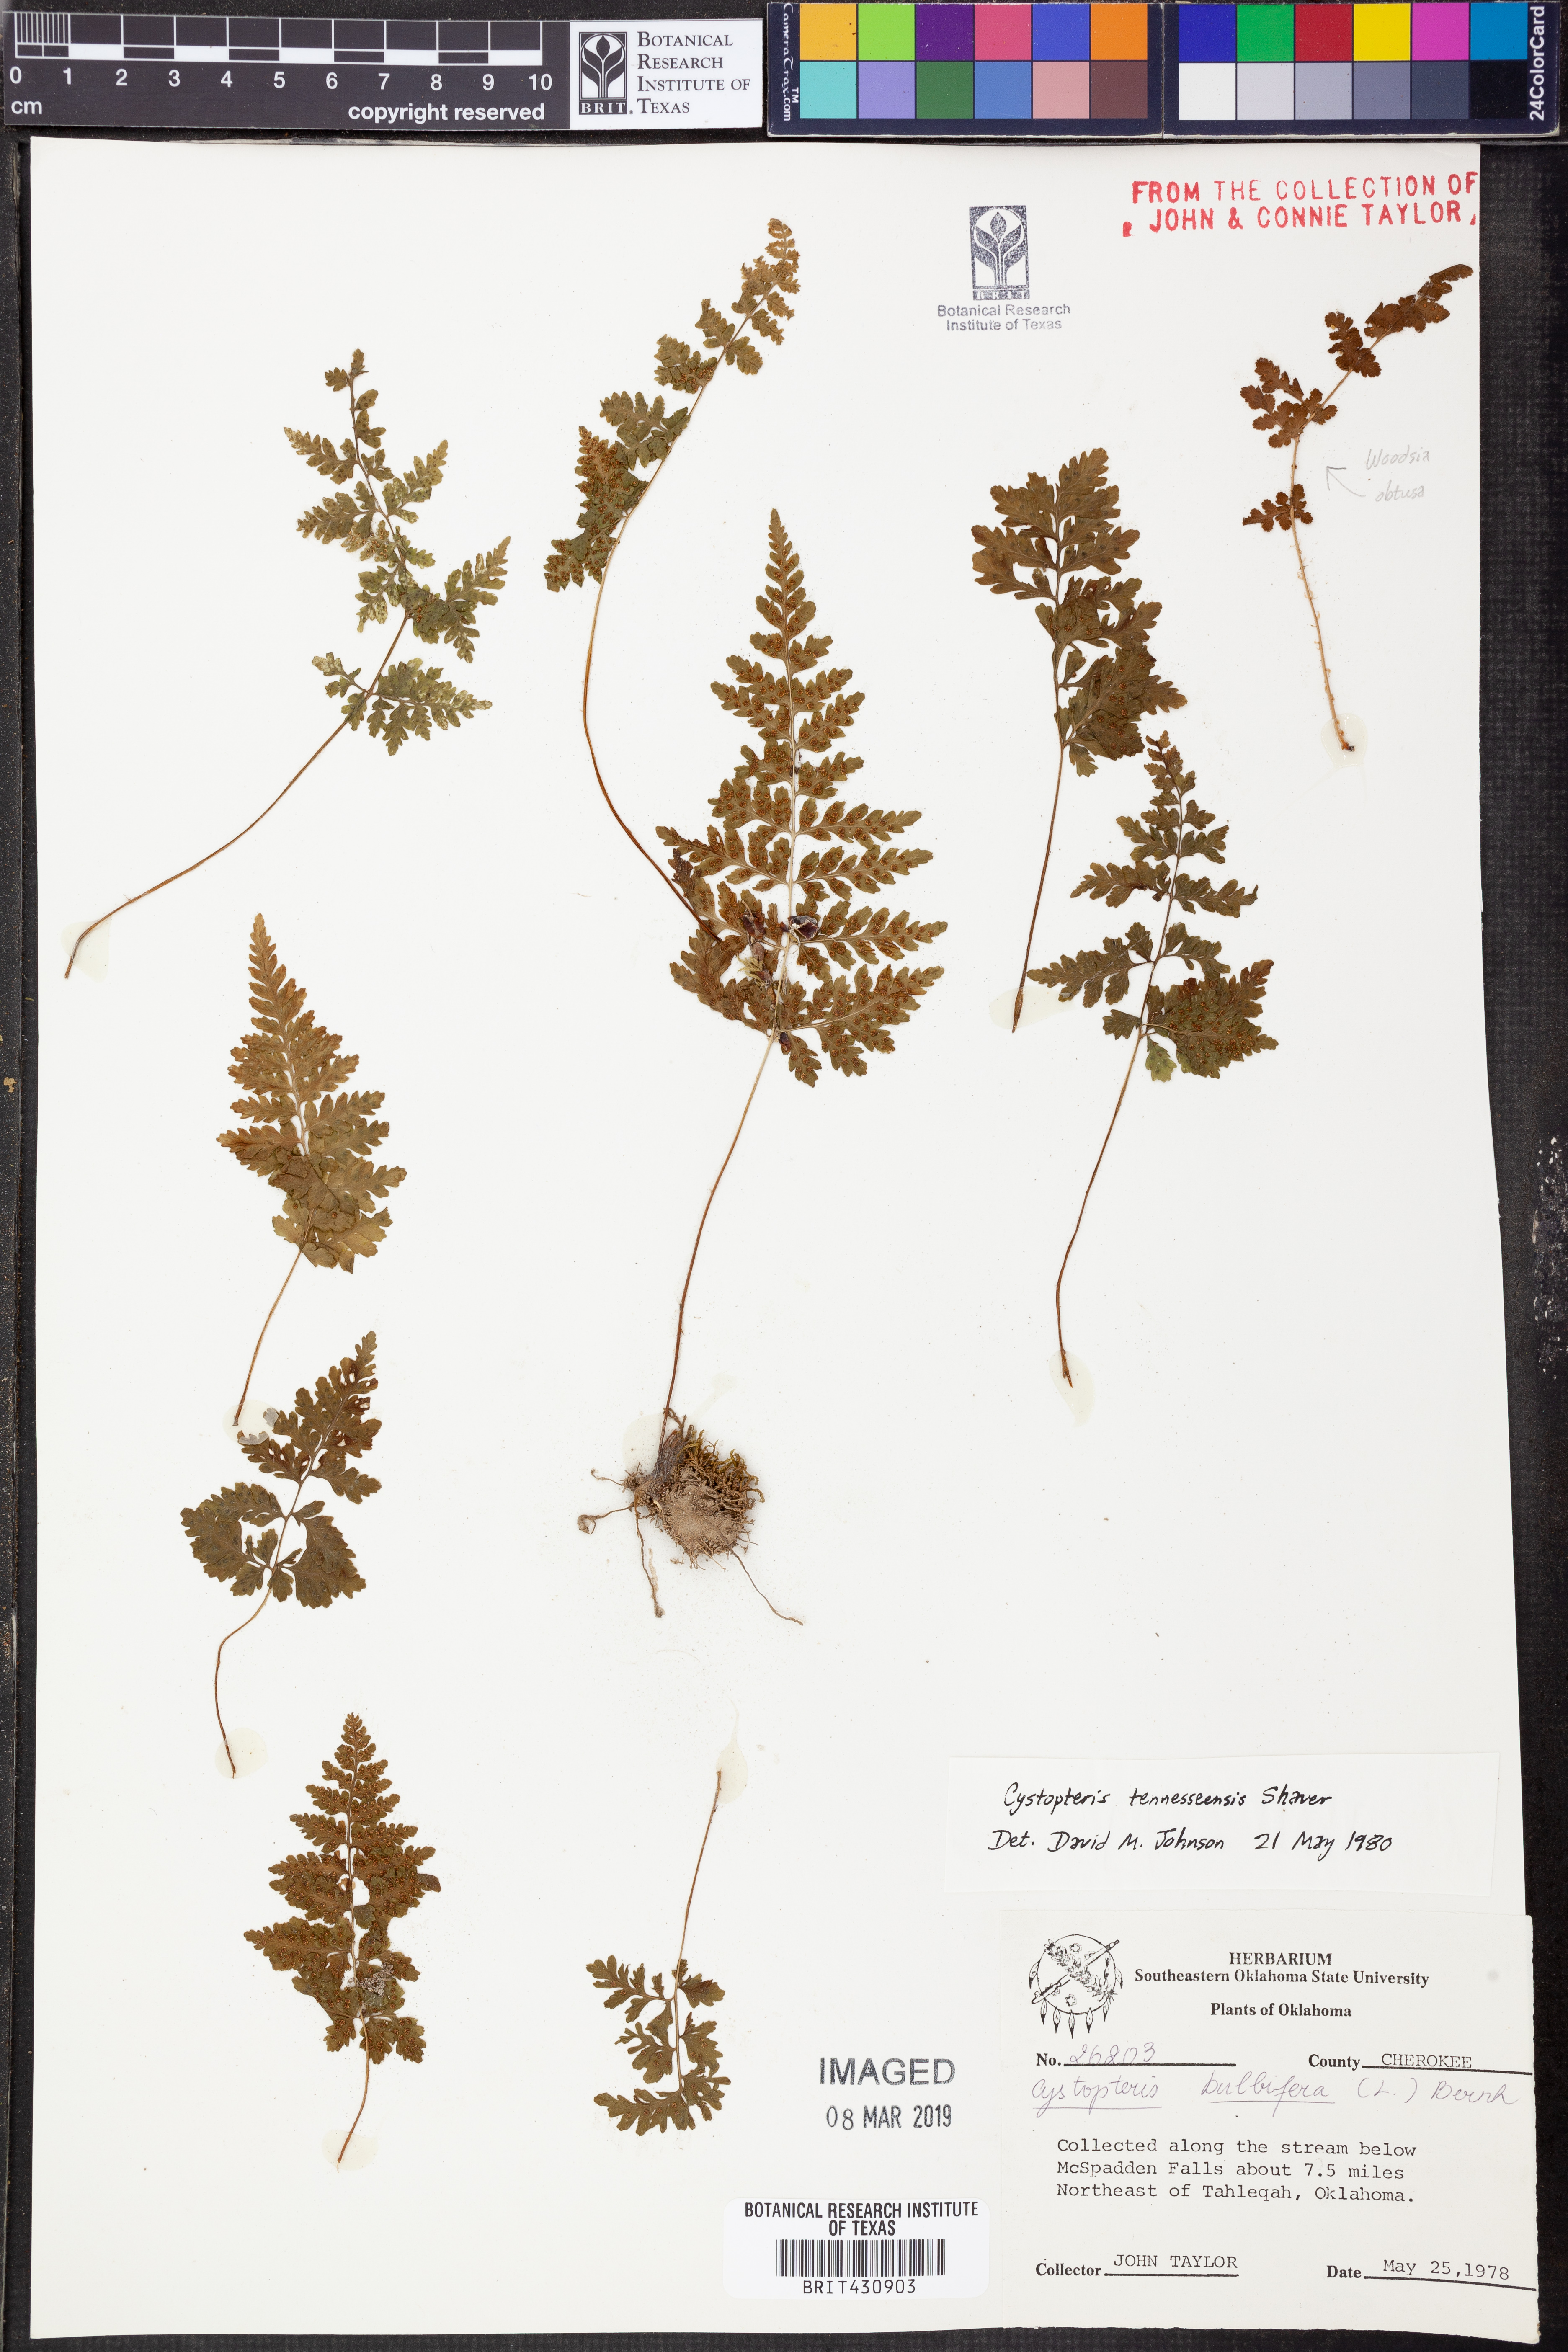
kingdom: Plantae
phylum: Tracheophyta
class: Polypodiopsida
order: Polypodiales
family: Cystopteridaceae
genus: Cystopteris
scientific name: Cystopteris tennesseensis
